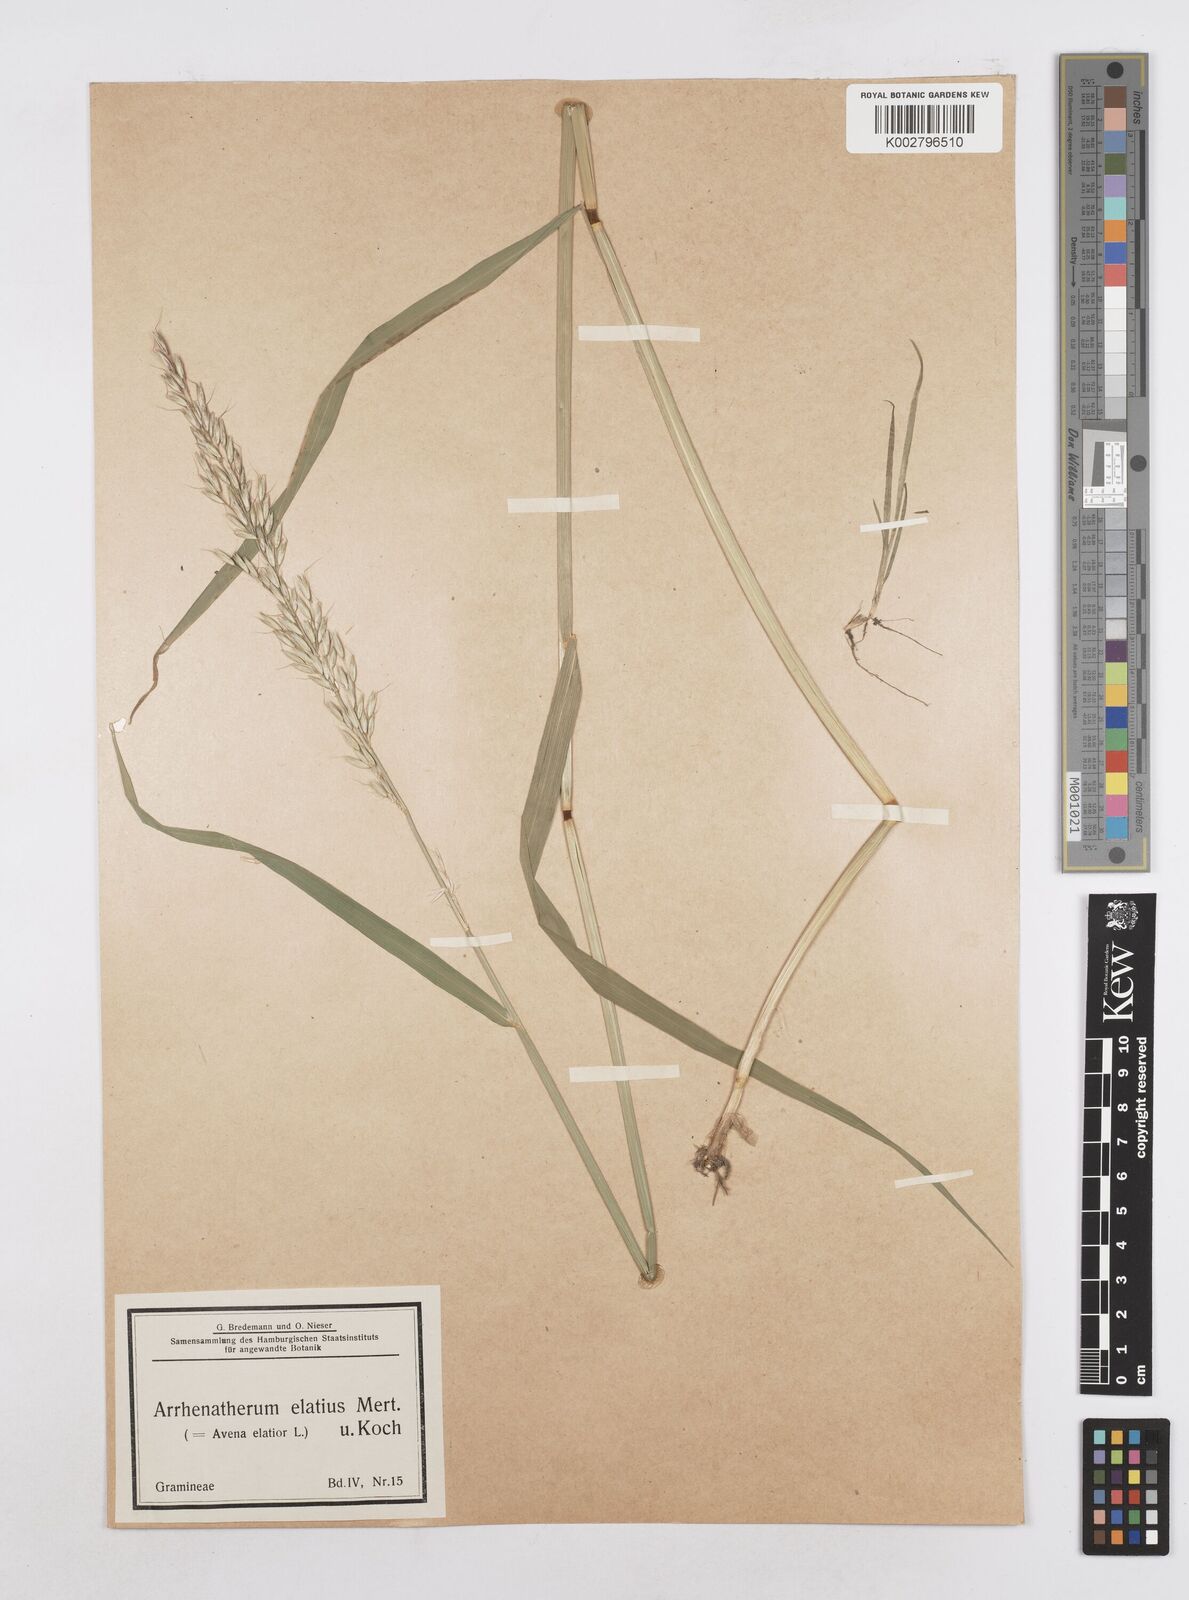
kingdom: Plantae
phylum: Tracheophyta
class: Liliopsida
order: Poales
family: Poaceae
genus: Arrhenatherum
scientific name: Arrhenatherum elatius
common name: Tall oatgrass
